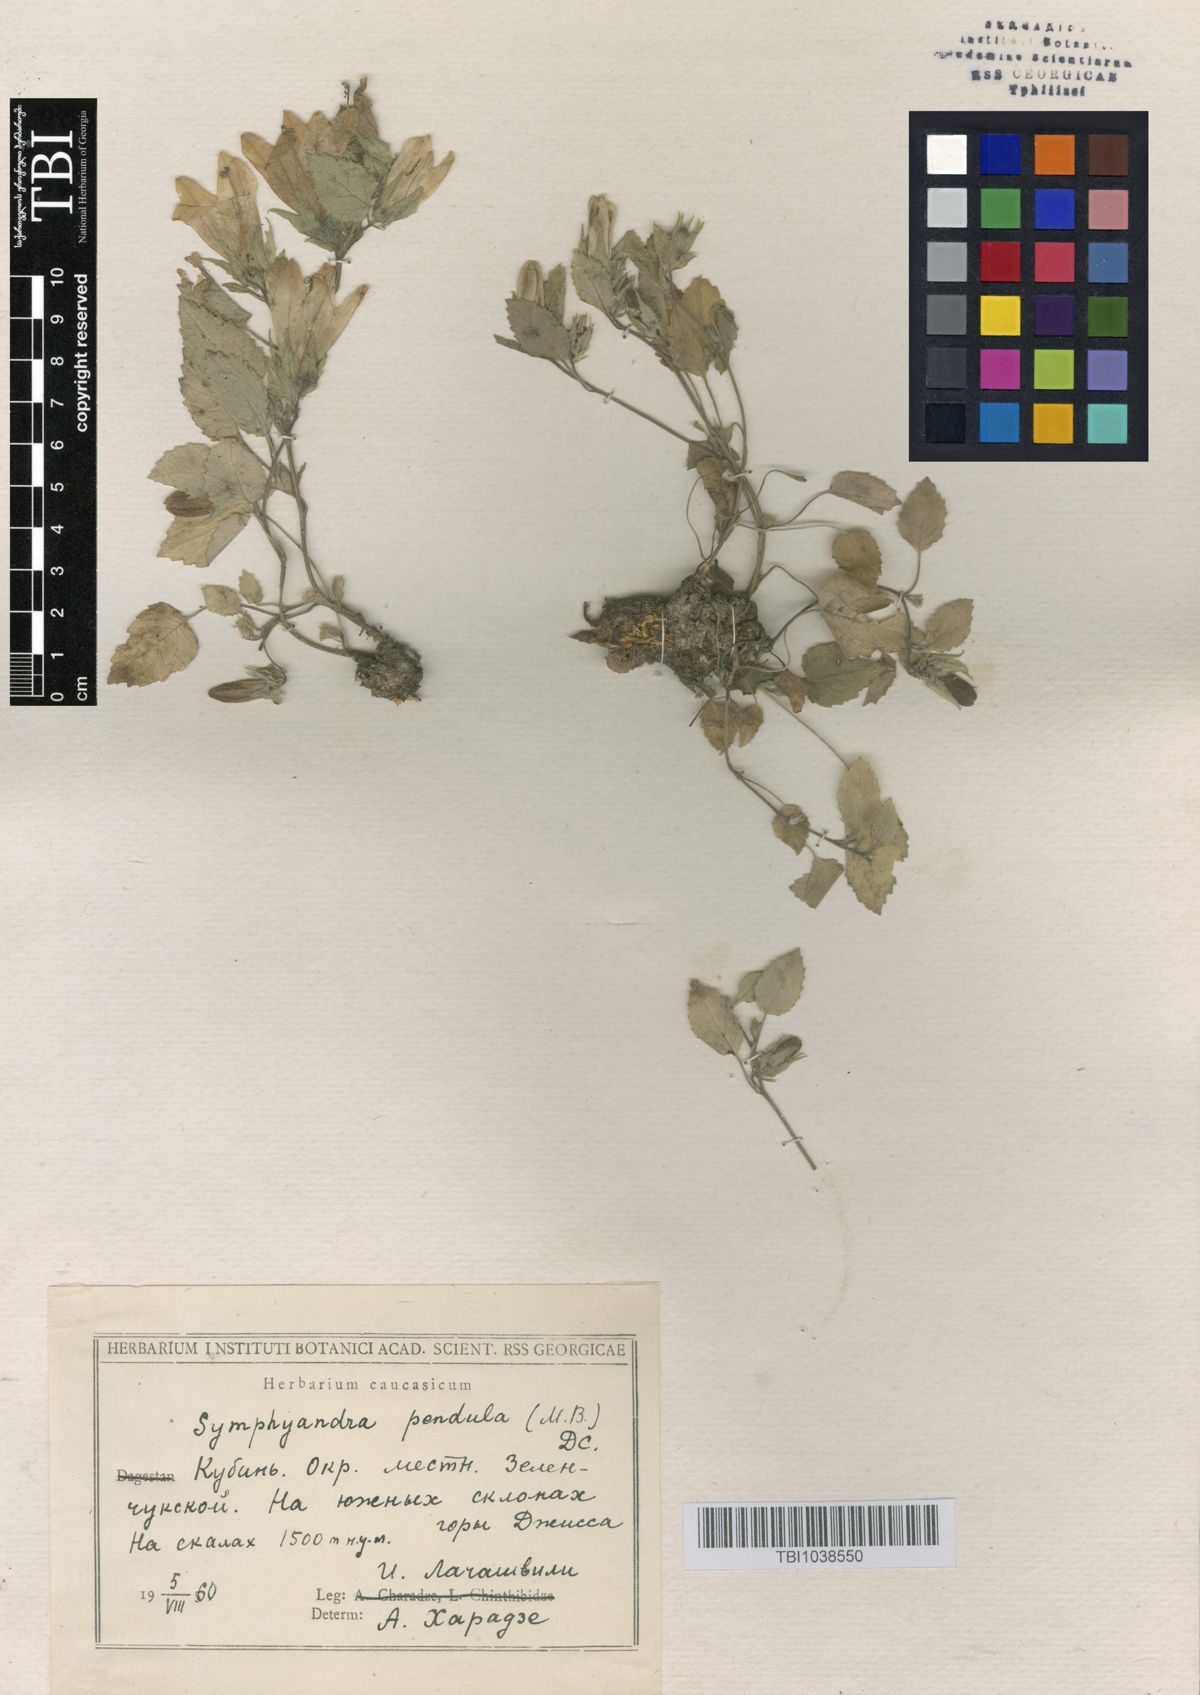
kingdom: Plantae
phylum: Tracheophyta
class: Magnoliopsida
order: Asterales
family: Campanulaceae
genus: Campanula
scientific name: Campanula pendula
